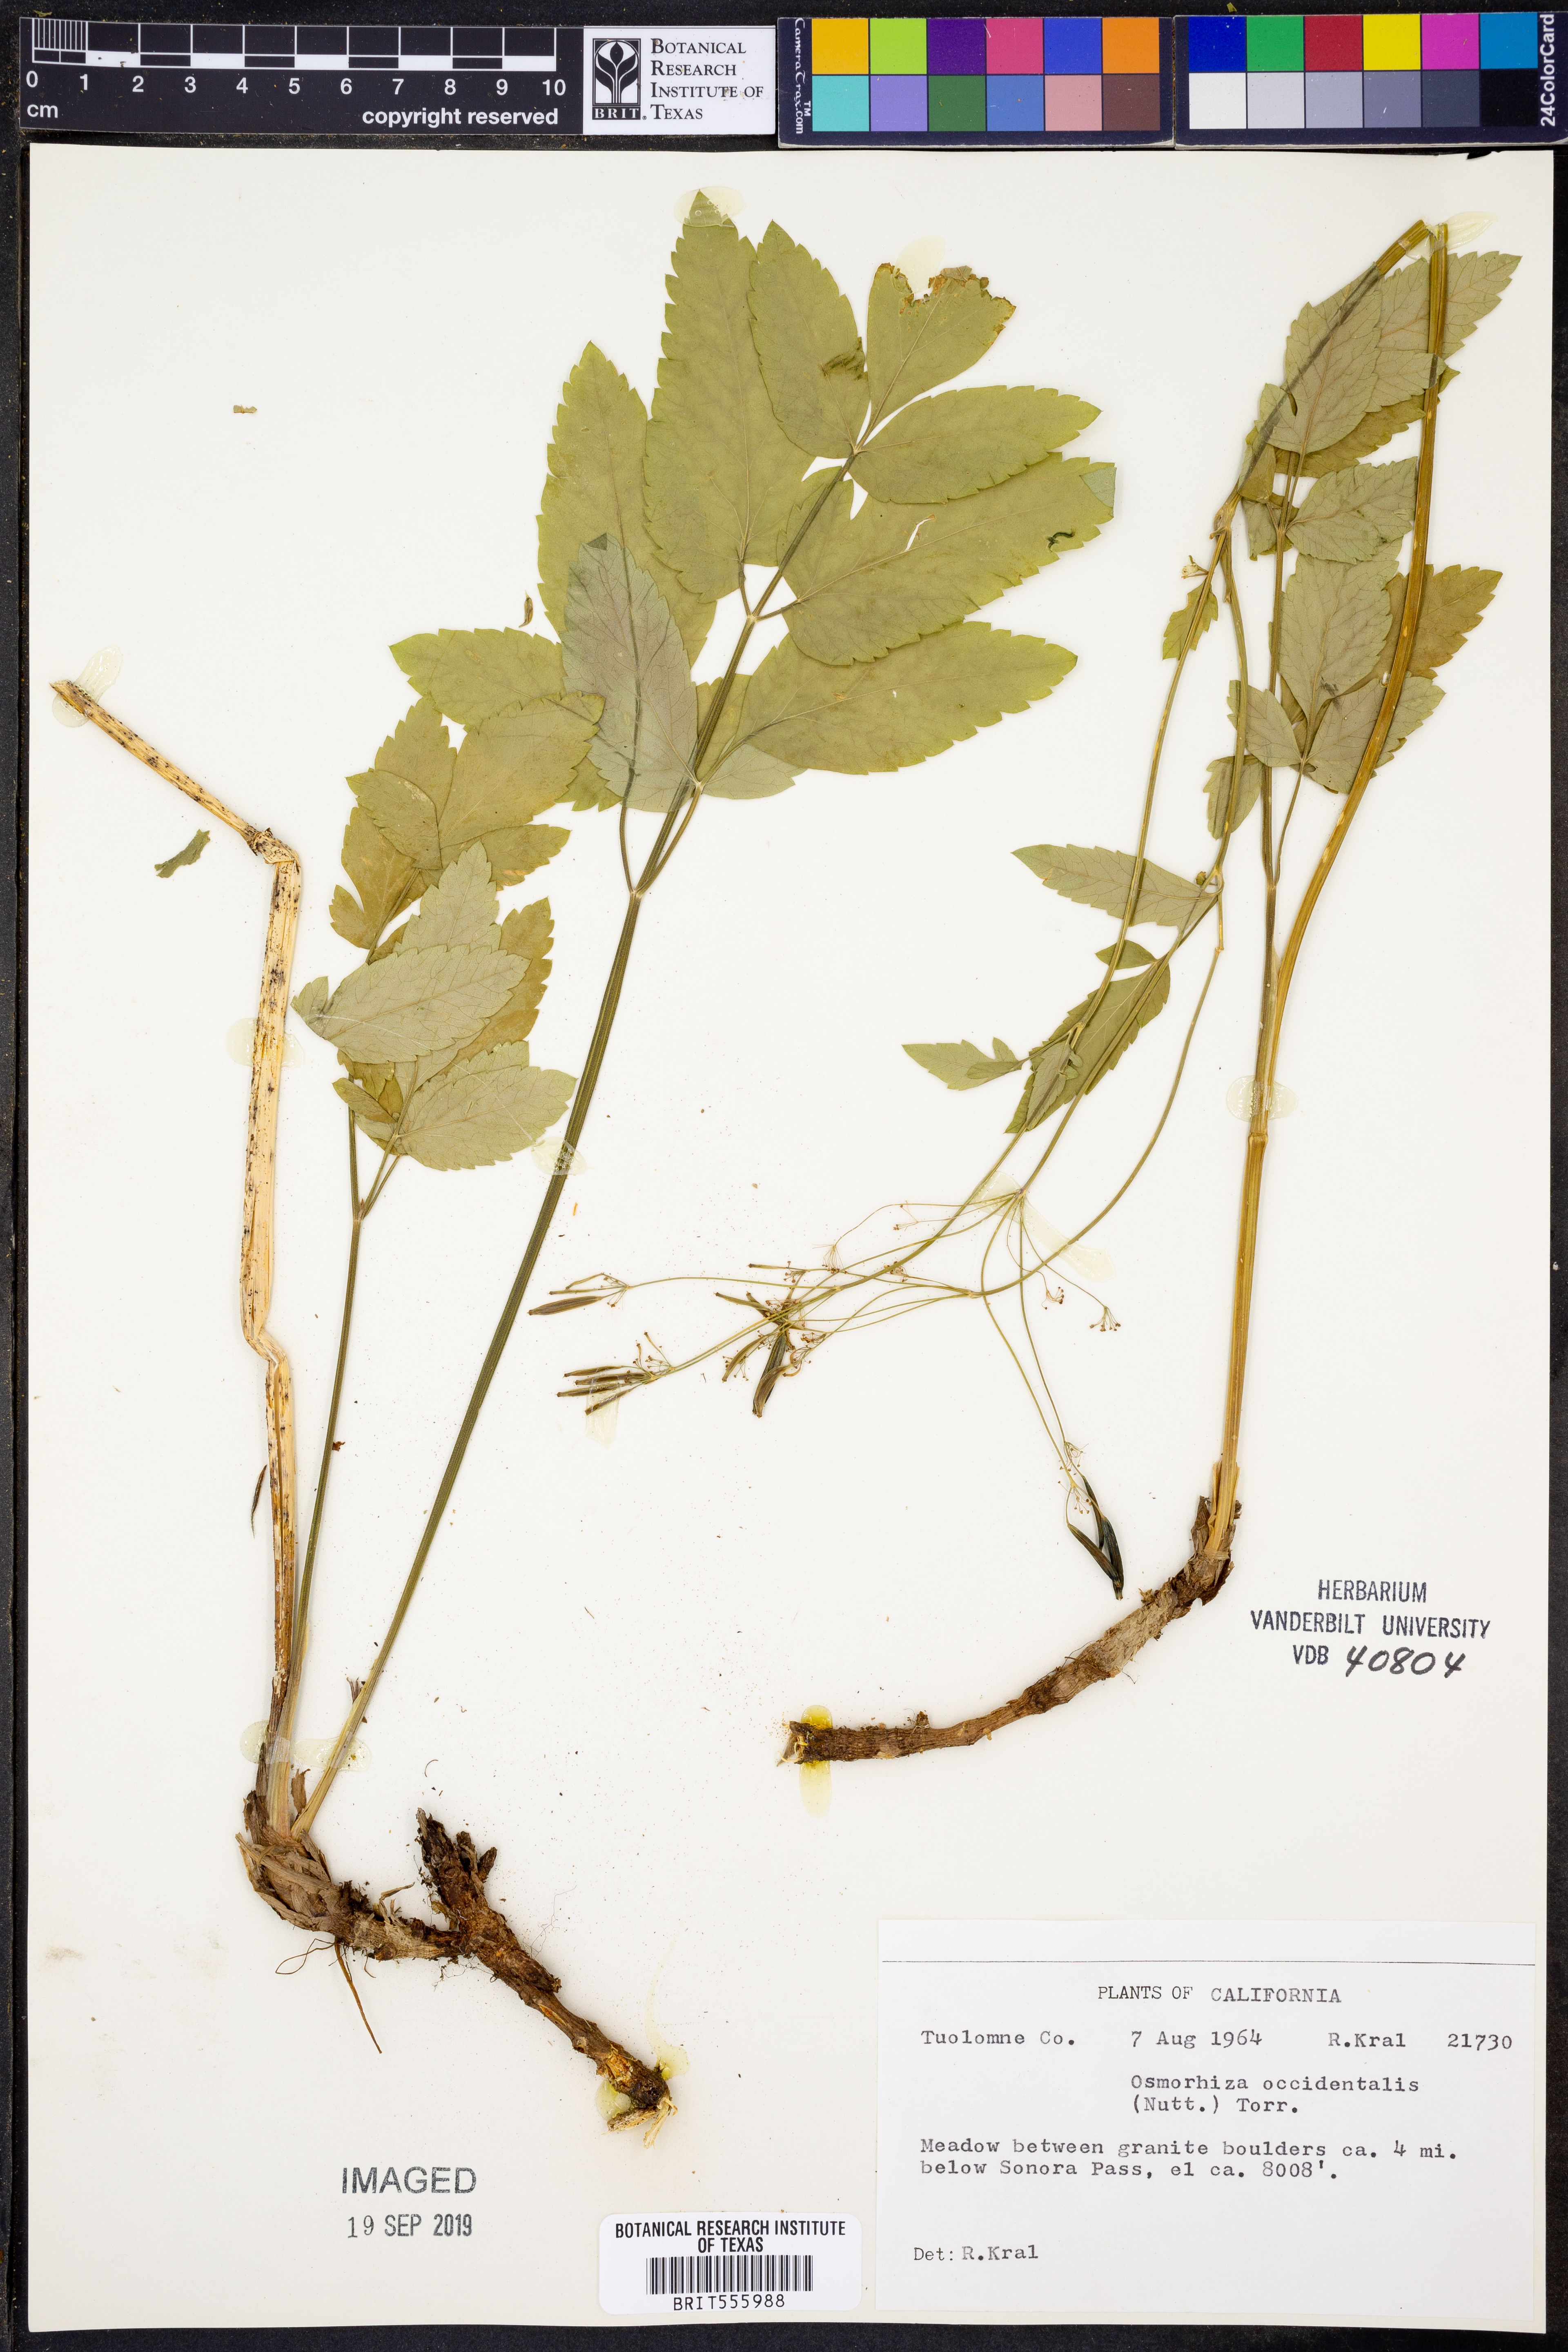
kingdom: Plantae
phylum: Tracheophyta
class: Magnoliopsida
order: Apiales
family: Apiaceae
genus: Osmorhiza
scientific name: Osmorhiza occidentalis
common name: Western sweet cicely
